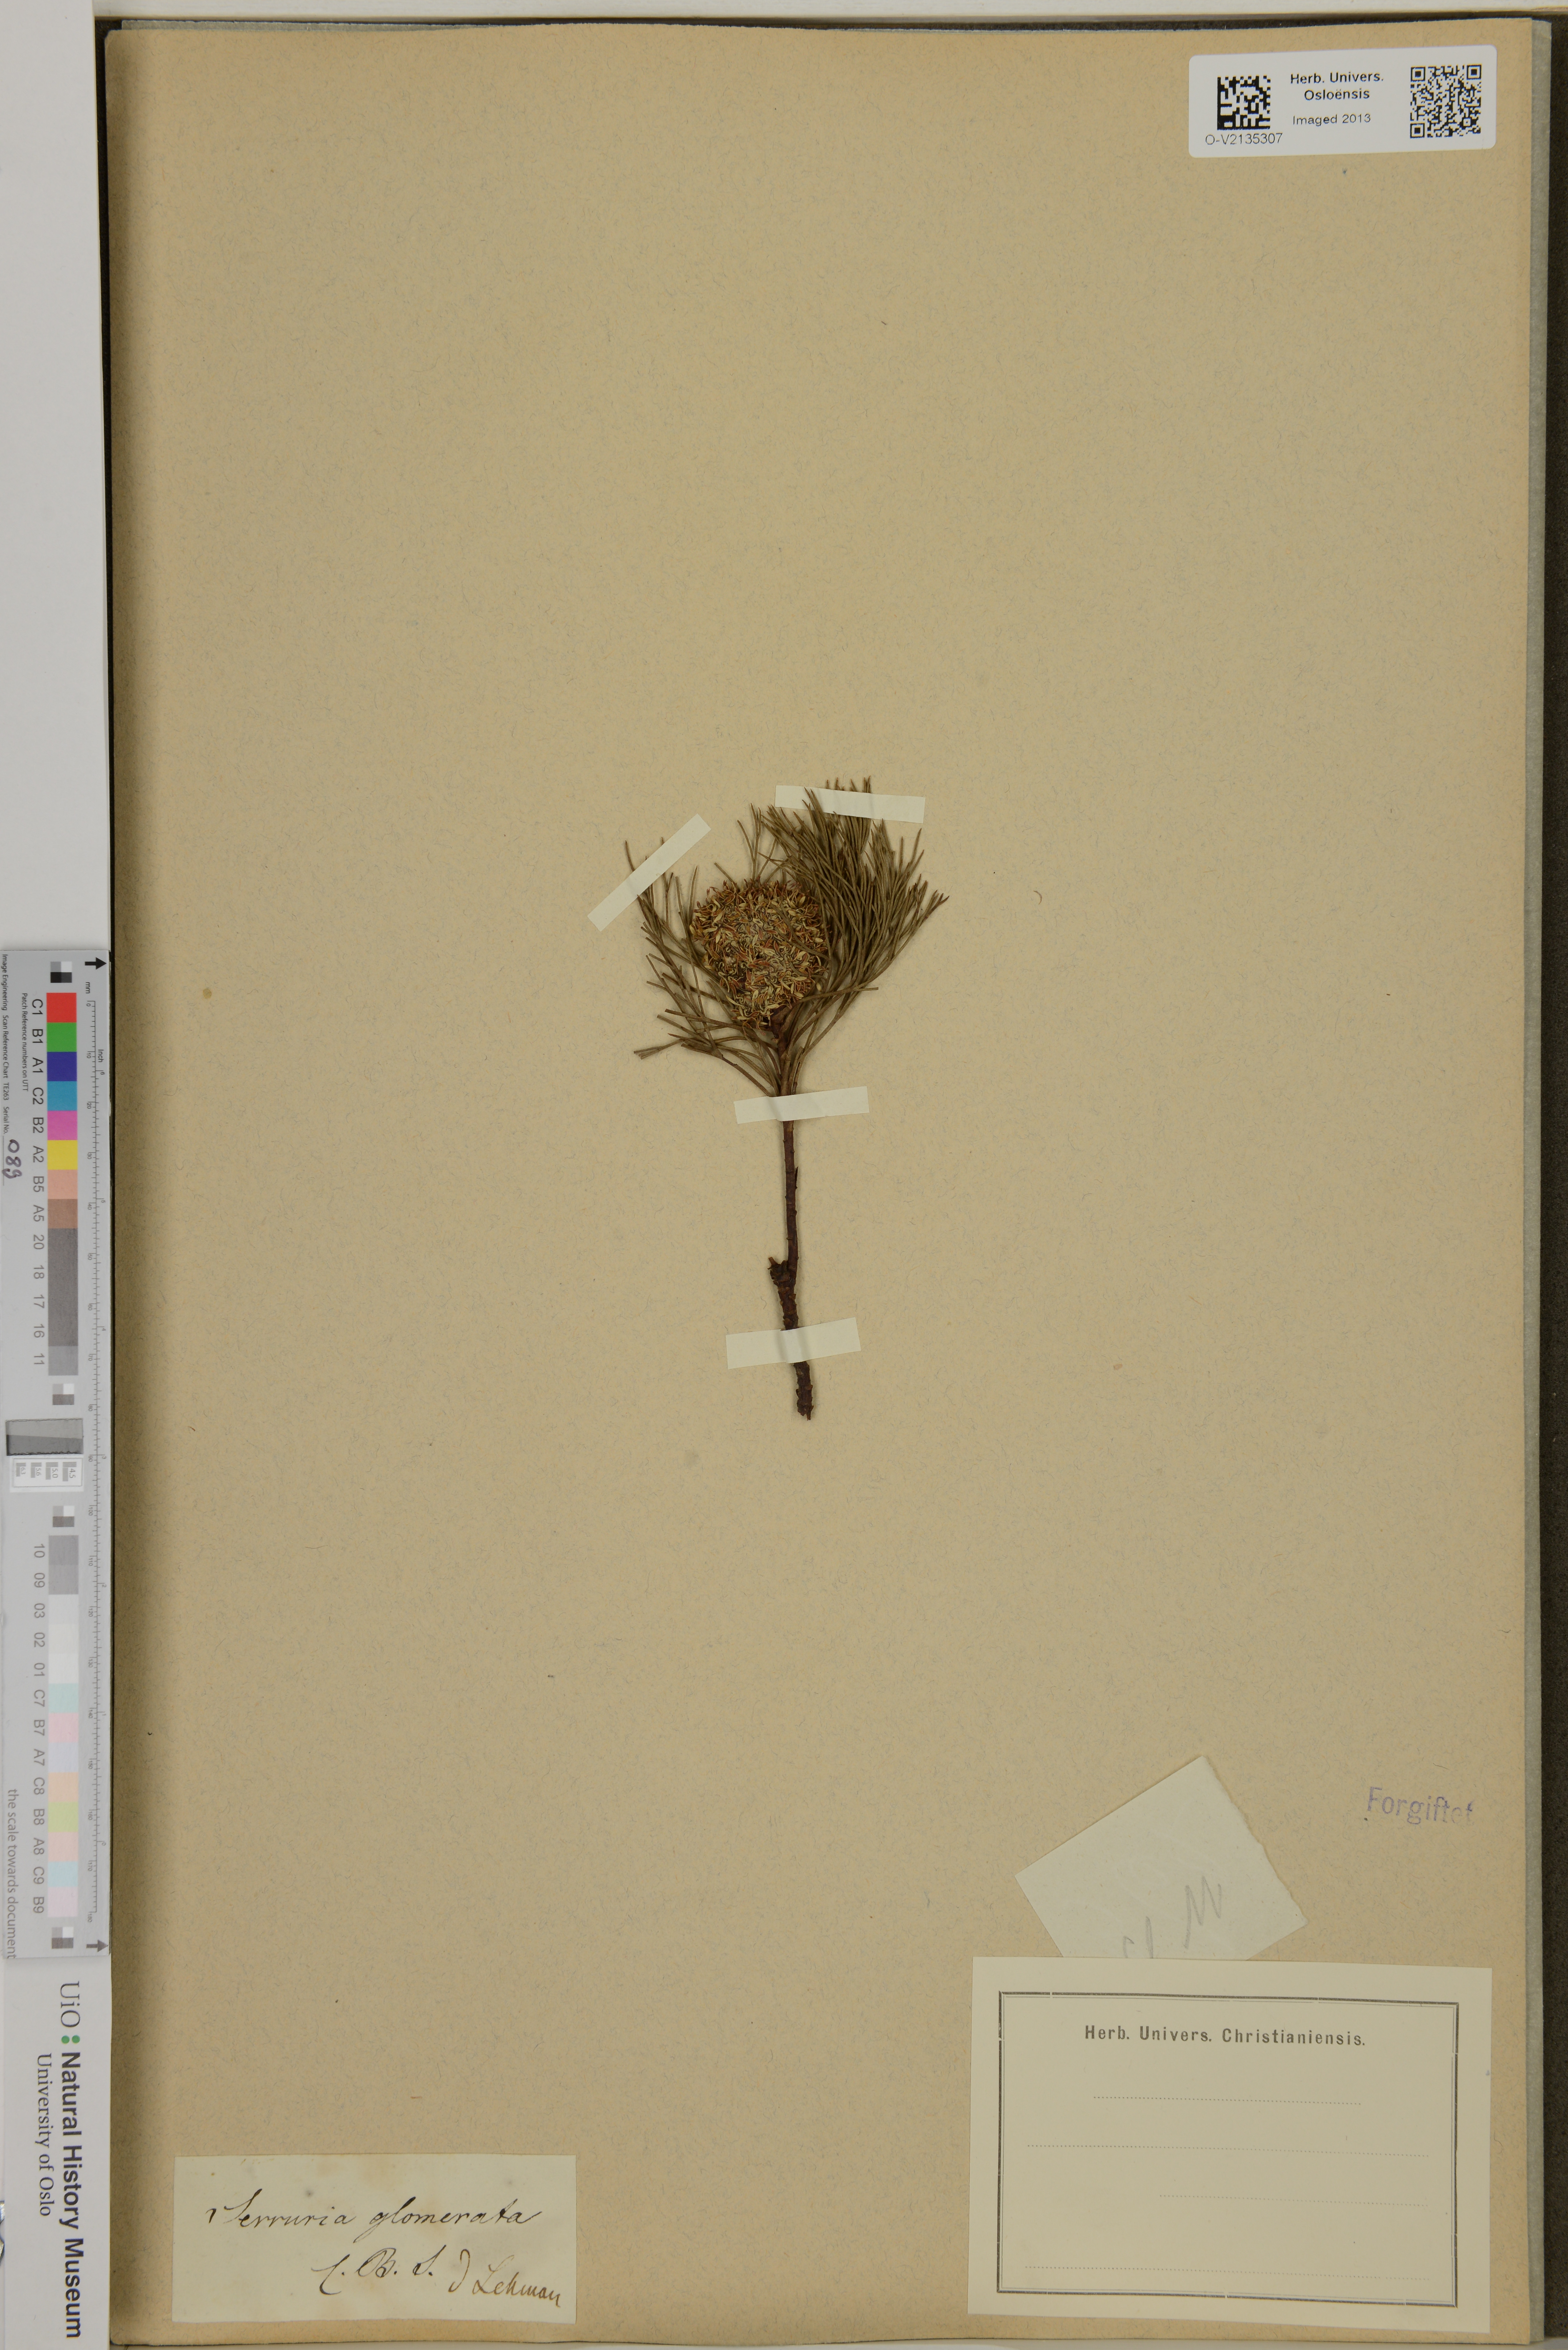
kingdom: Plantae
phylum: Tracheophyta
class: Magnoliopsida
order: Proteales
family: Proteaceae
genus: Serruria
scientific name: Serruria glomerata
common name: Cluster spiderhead
